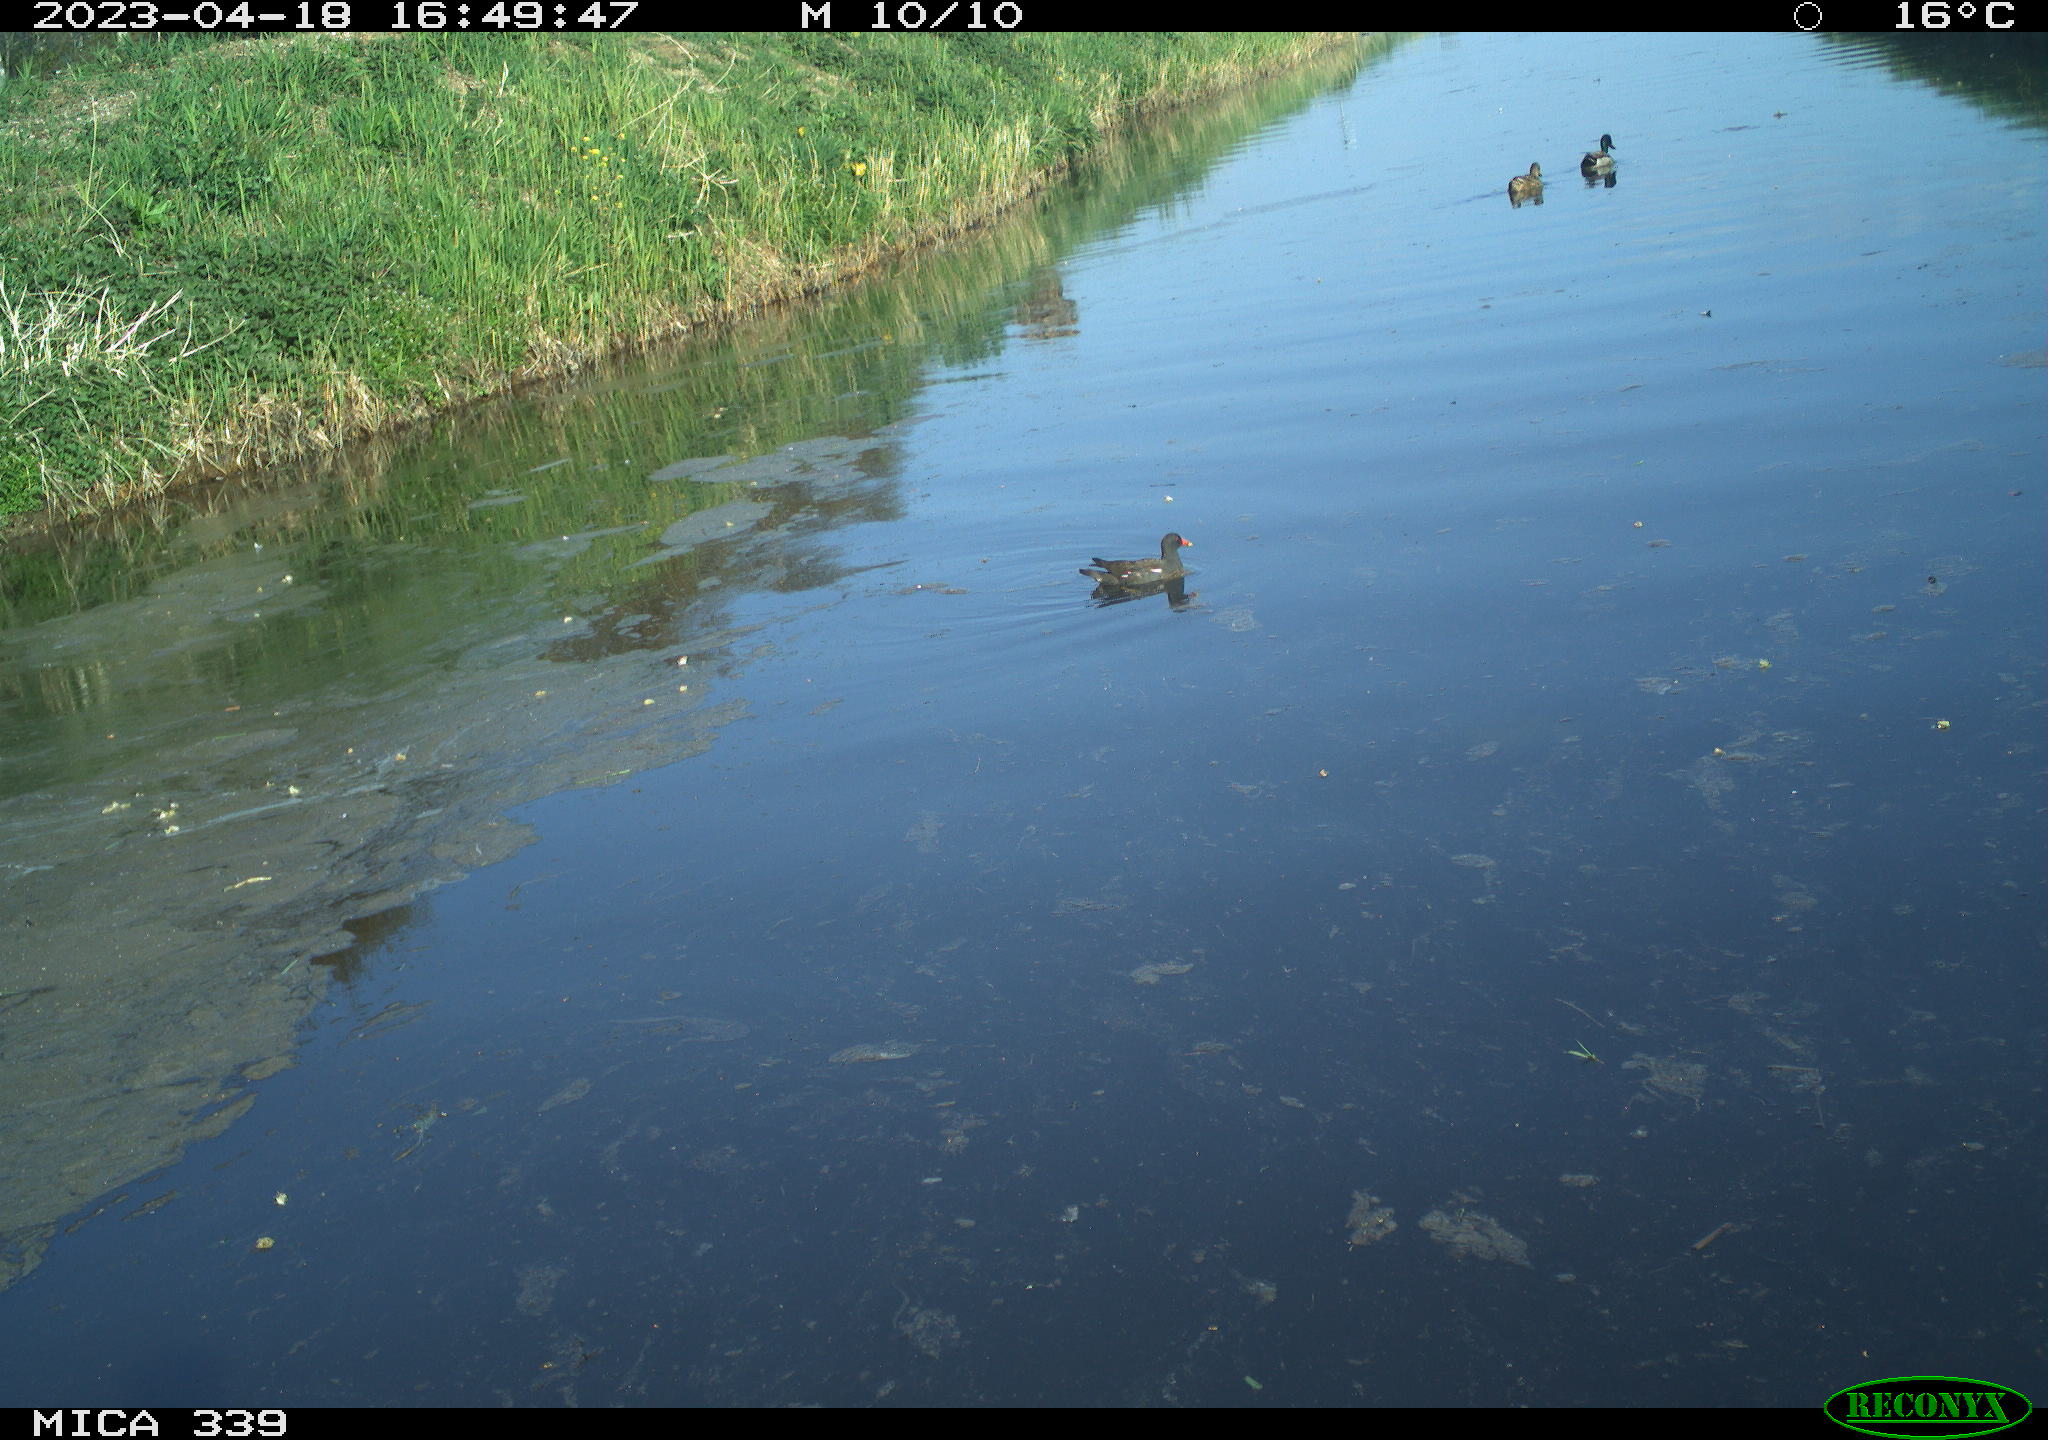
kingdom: Animalia
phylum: Chordata
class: Aves
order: Anseriformes
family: Anatidae
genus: Anas
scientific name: Anas
